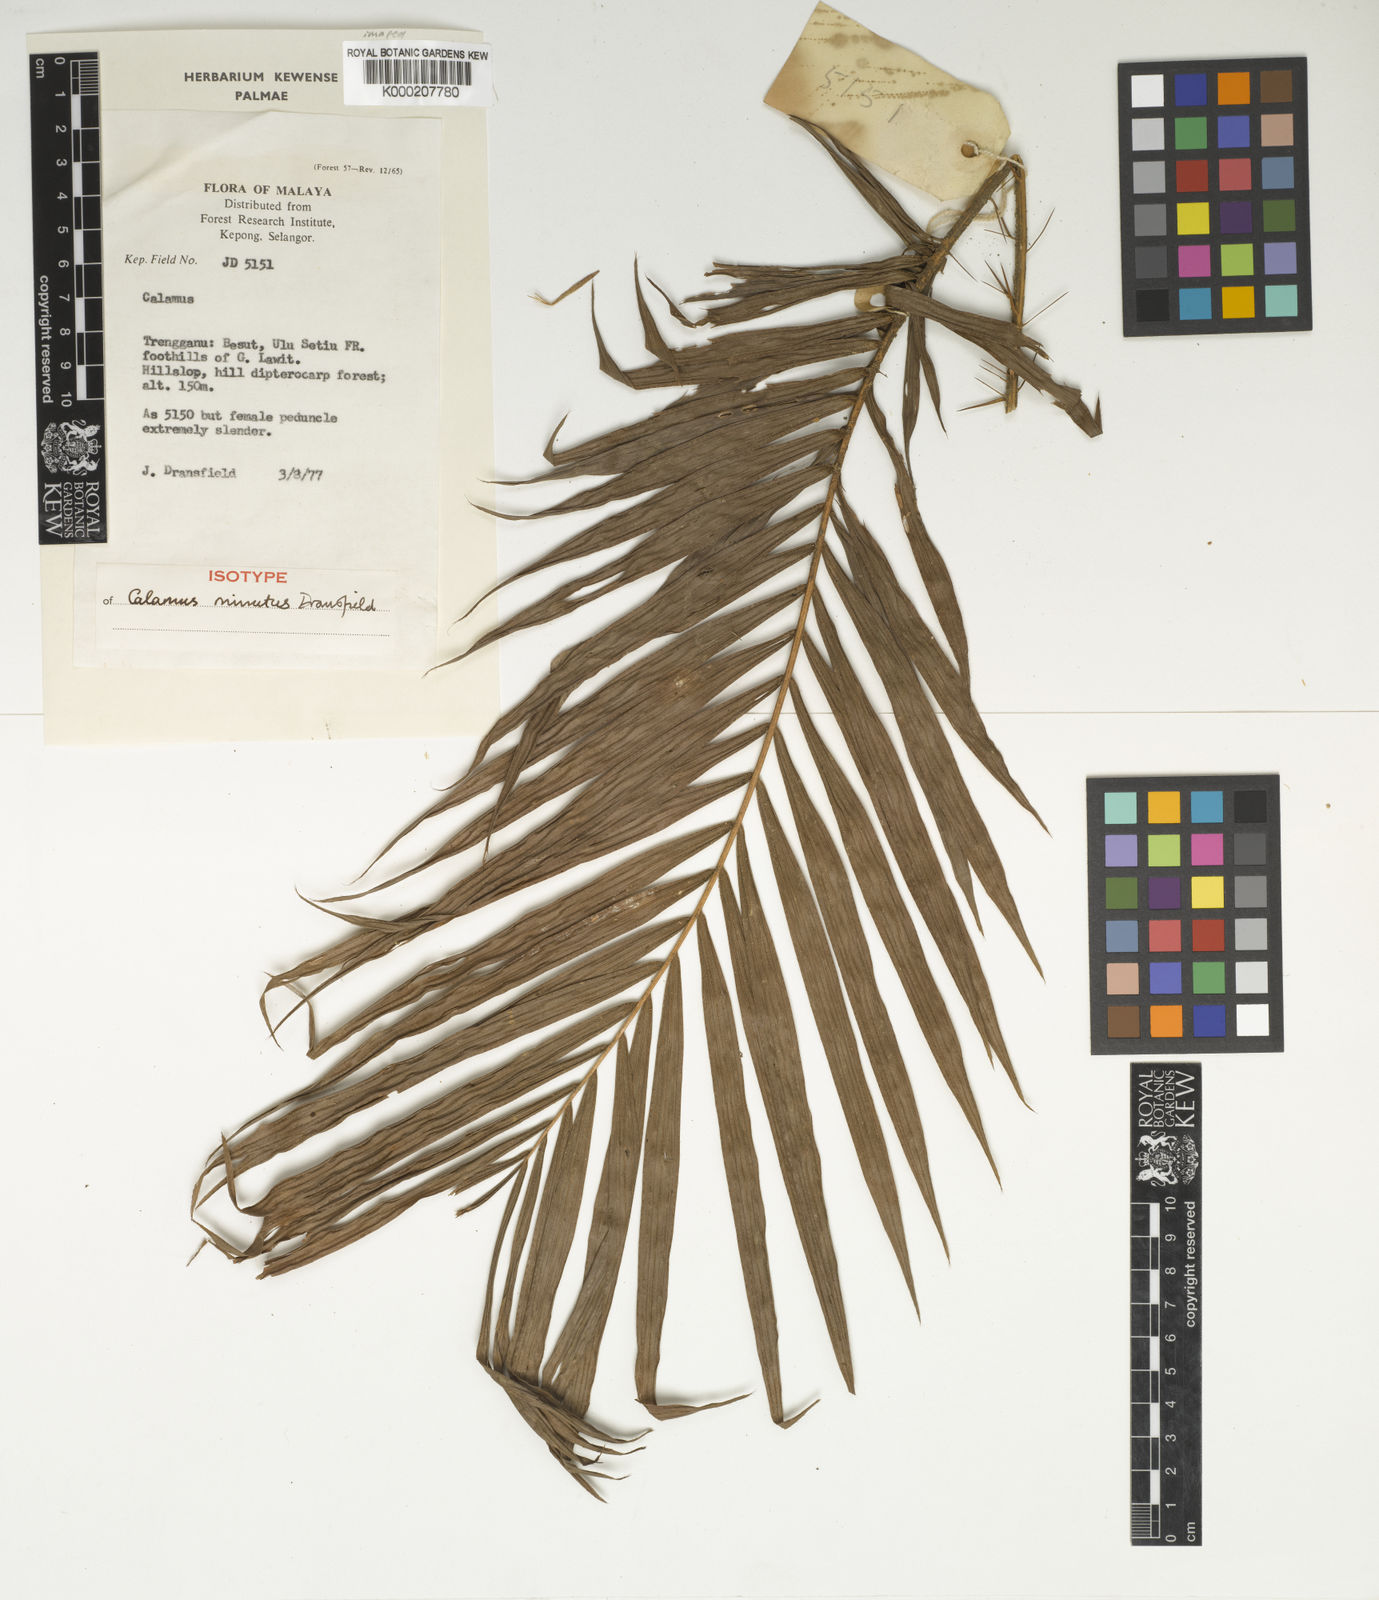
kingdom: Plantae
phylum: Tracheophyta
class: Liliopsida
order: Arecales
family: Arecaceae
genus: Calamus
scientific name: Calamus minutus
